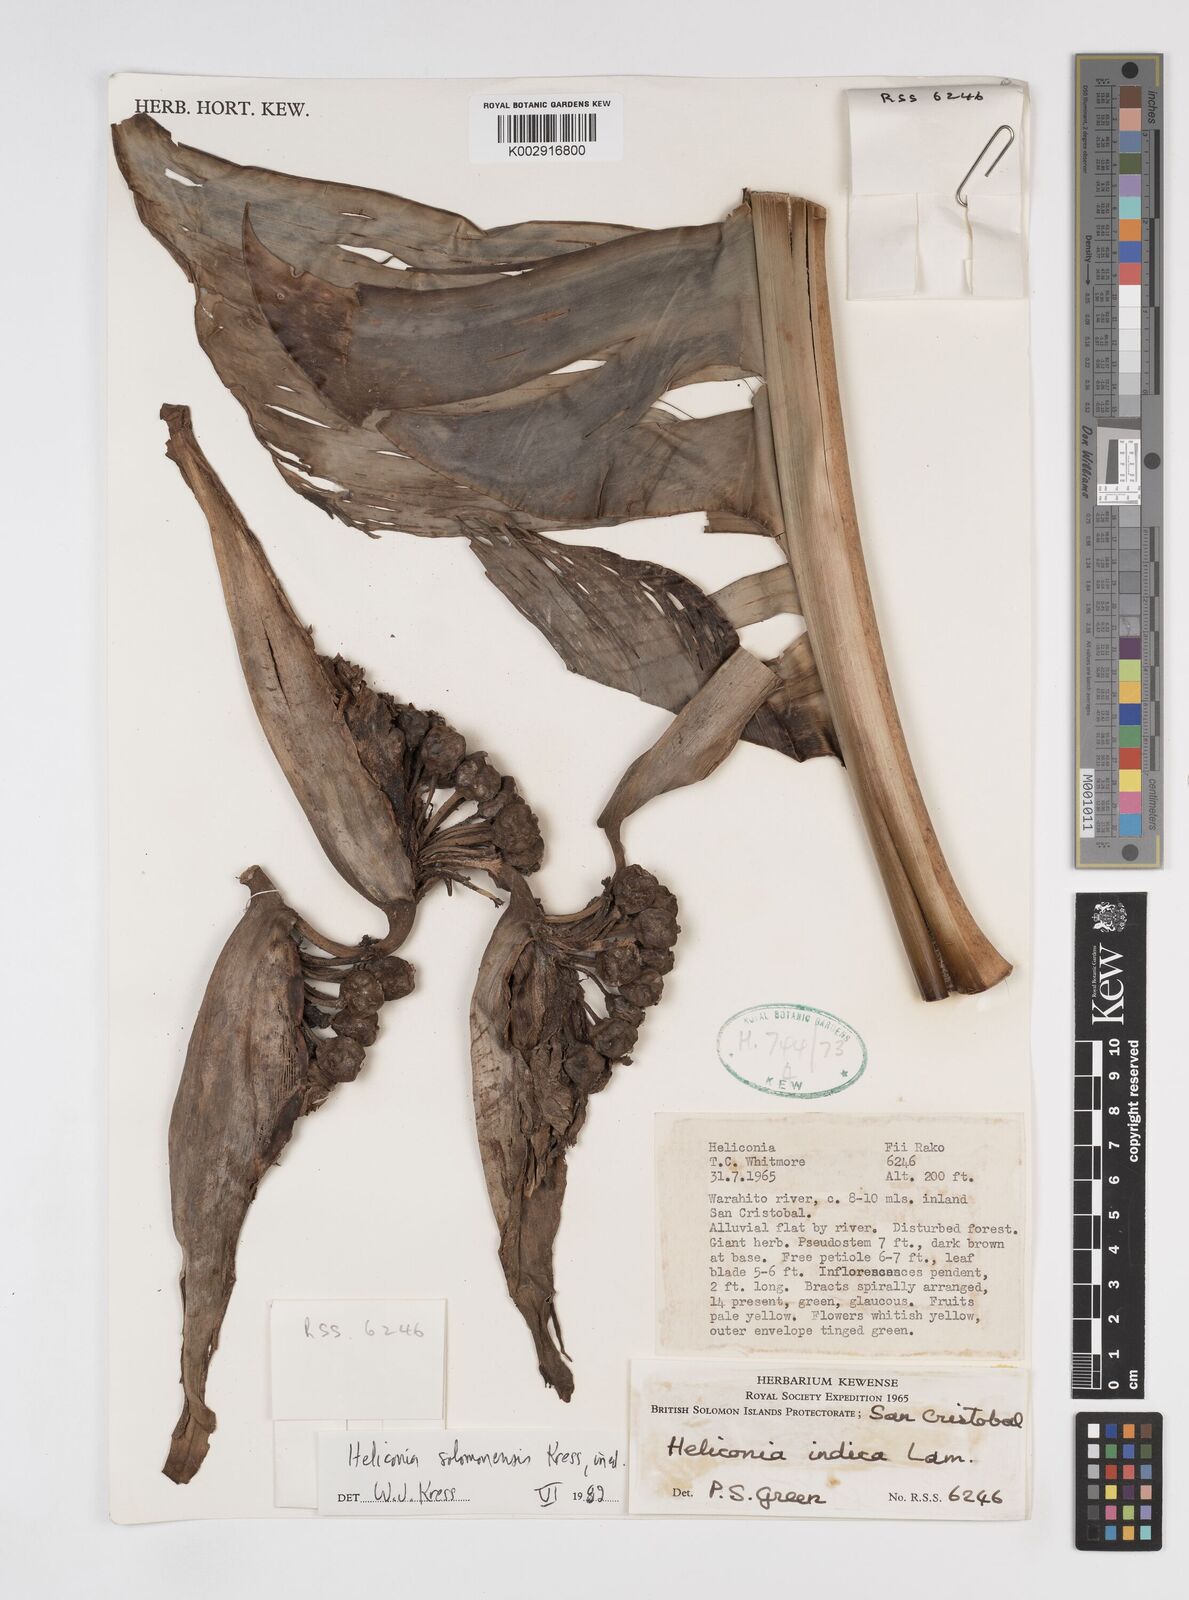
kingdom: Plantae
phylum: Tracheophyta
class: Liliopsida
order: Zingiberales
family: Heliconiaceae
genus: Heliconia
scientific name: Heliconia solomonensis
